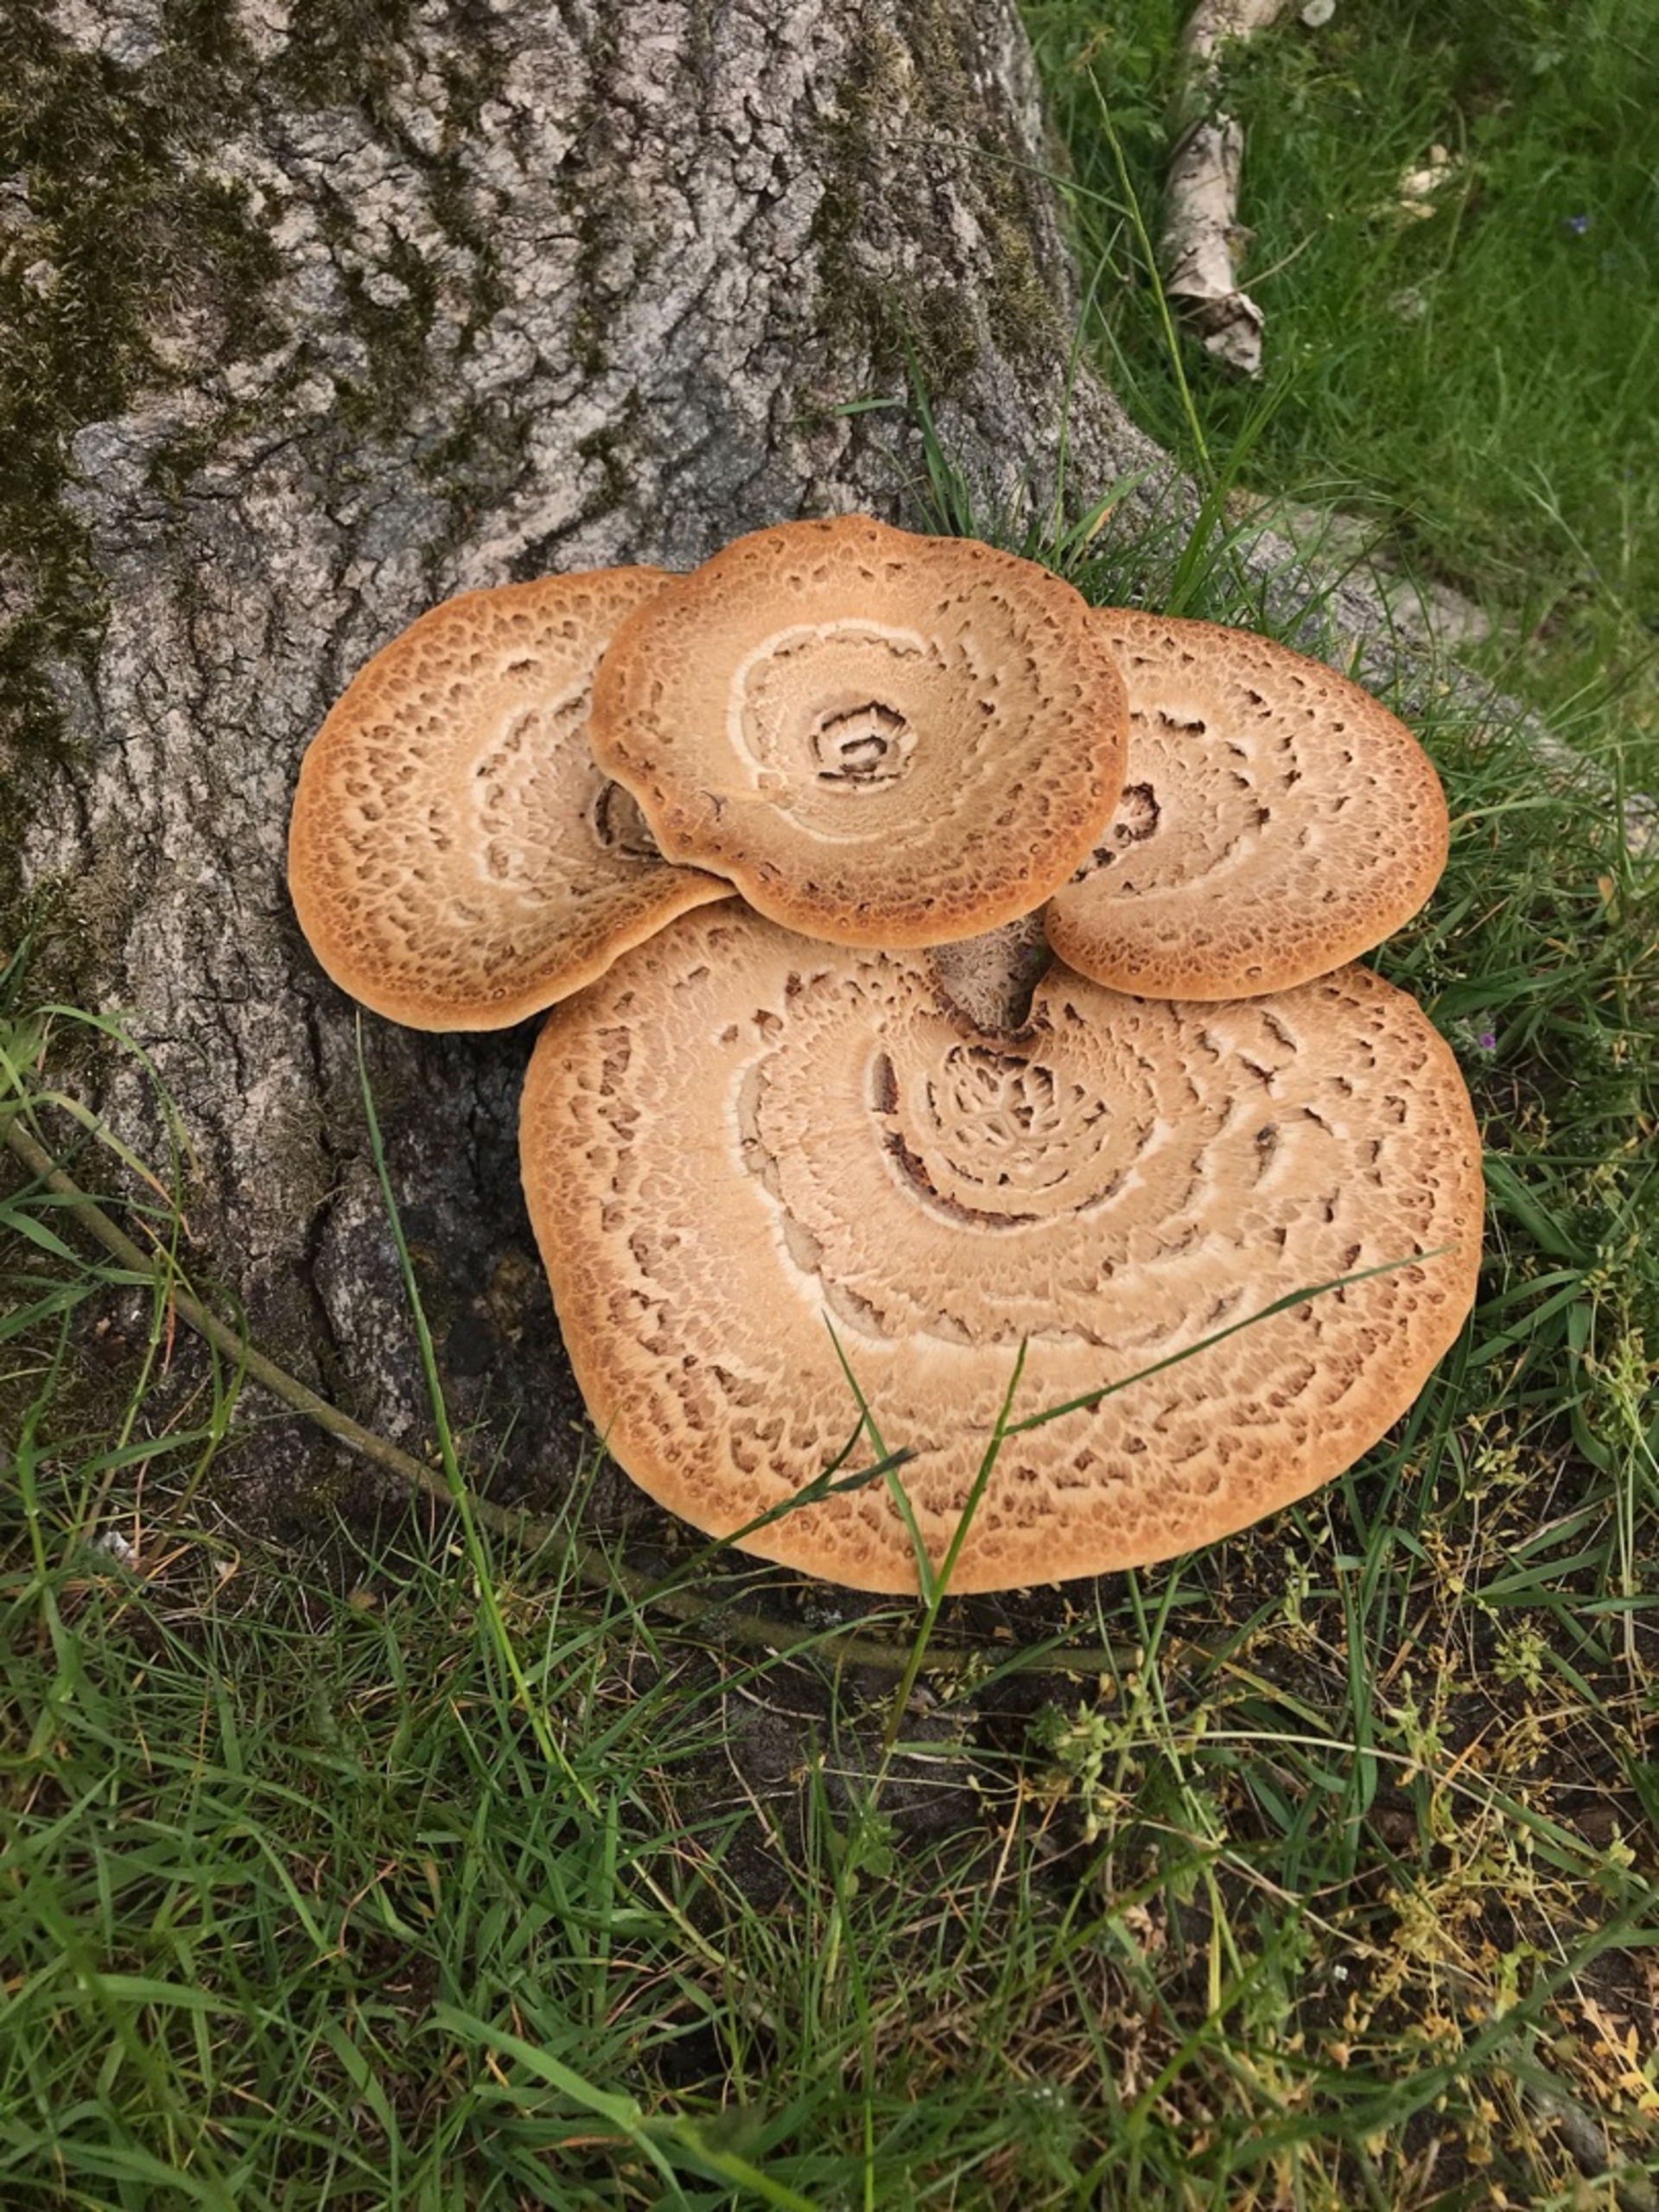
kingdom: Fungi
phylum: Basidiomycota
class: Agaricomycetes
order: Polyporales
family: Polyporaceae
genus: Cerioporus
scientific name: Cerioporus squamosus
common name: Skællet stilkporesvamp
